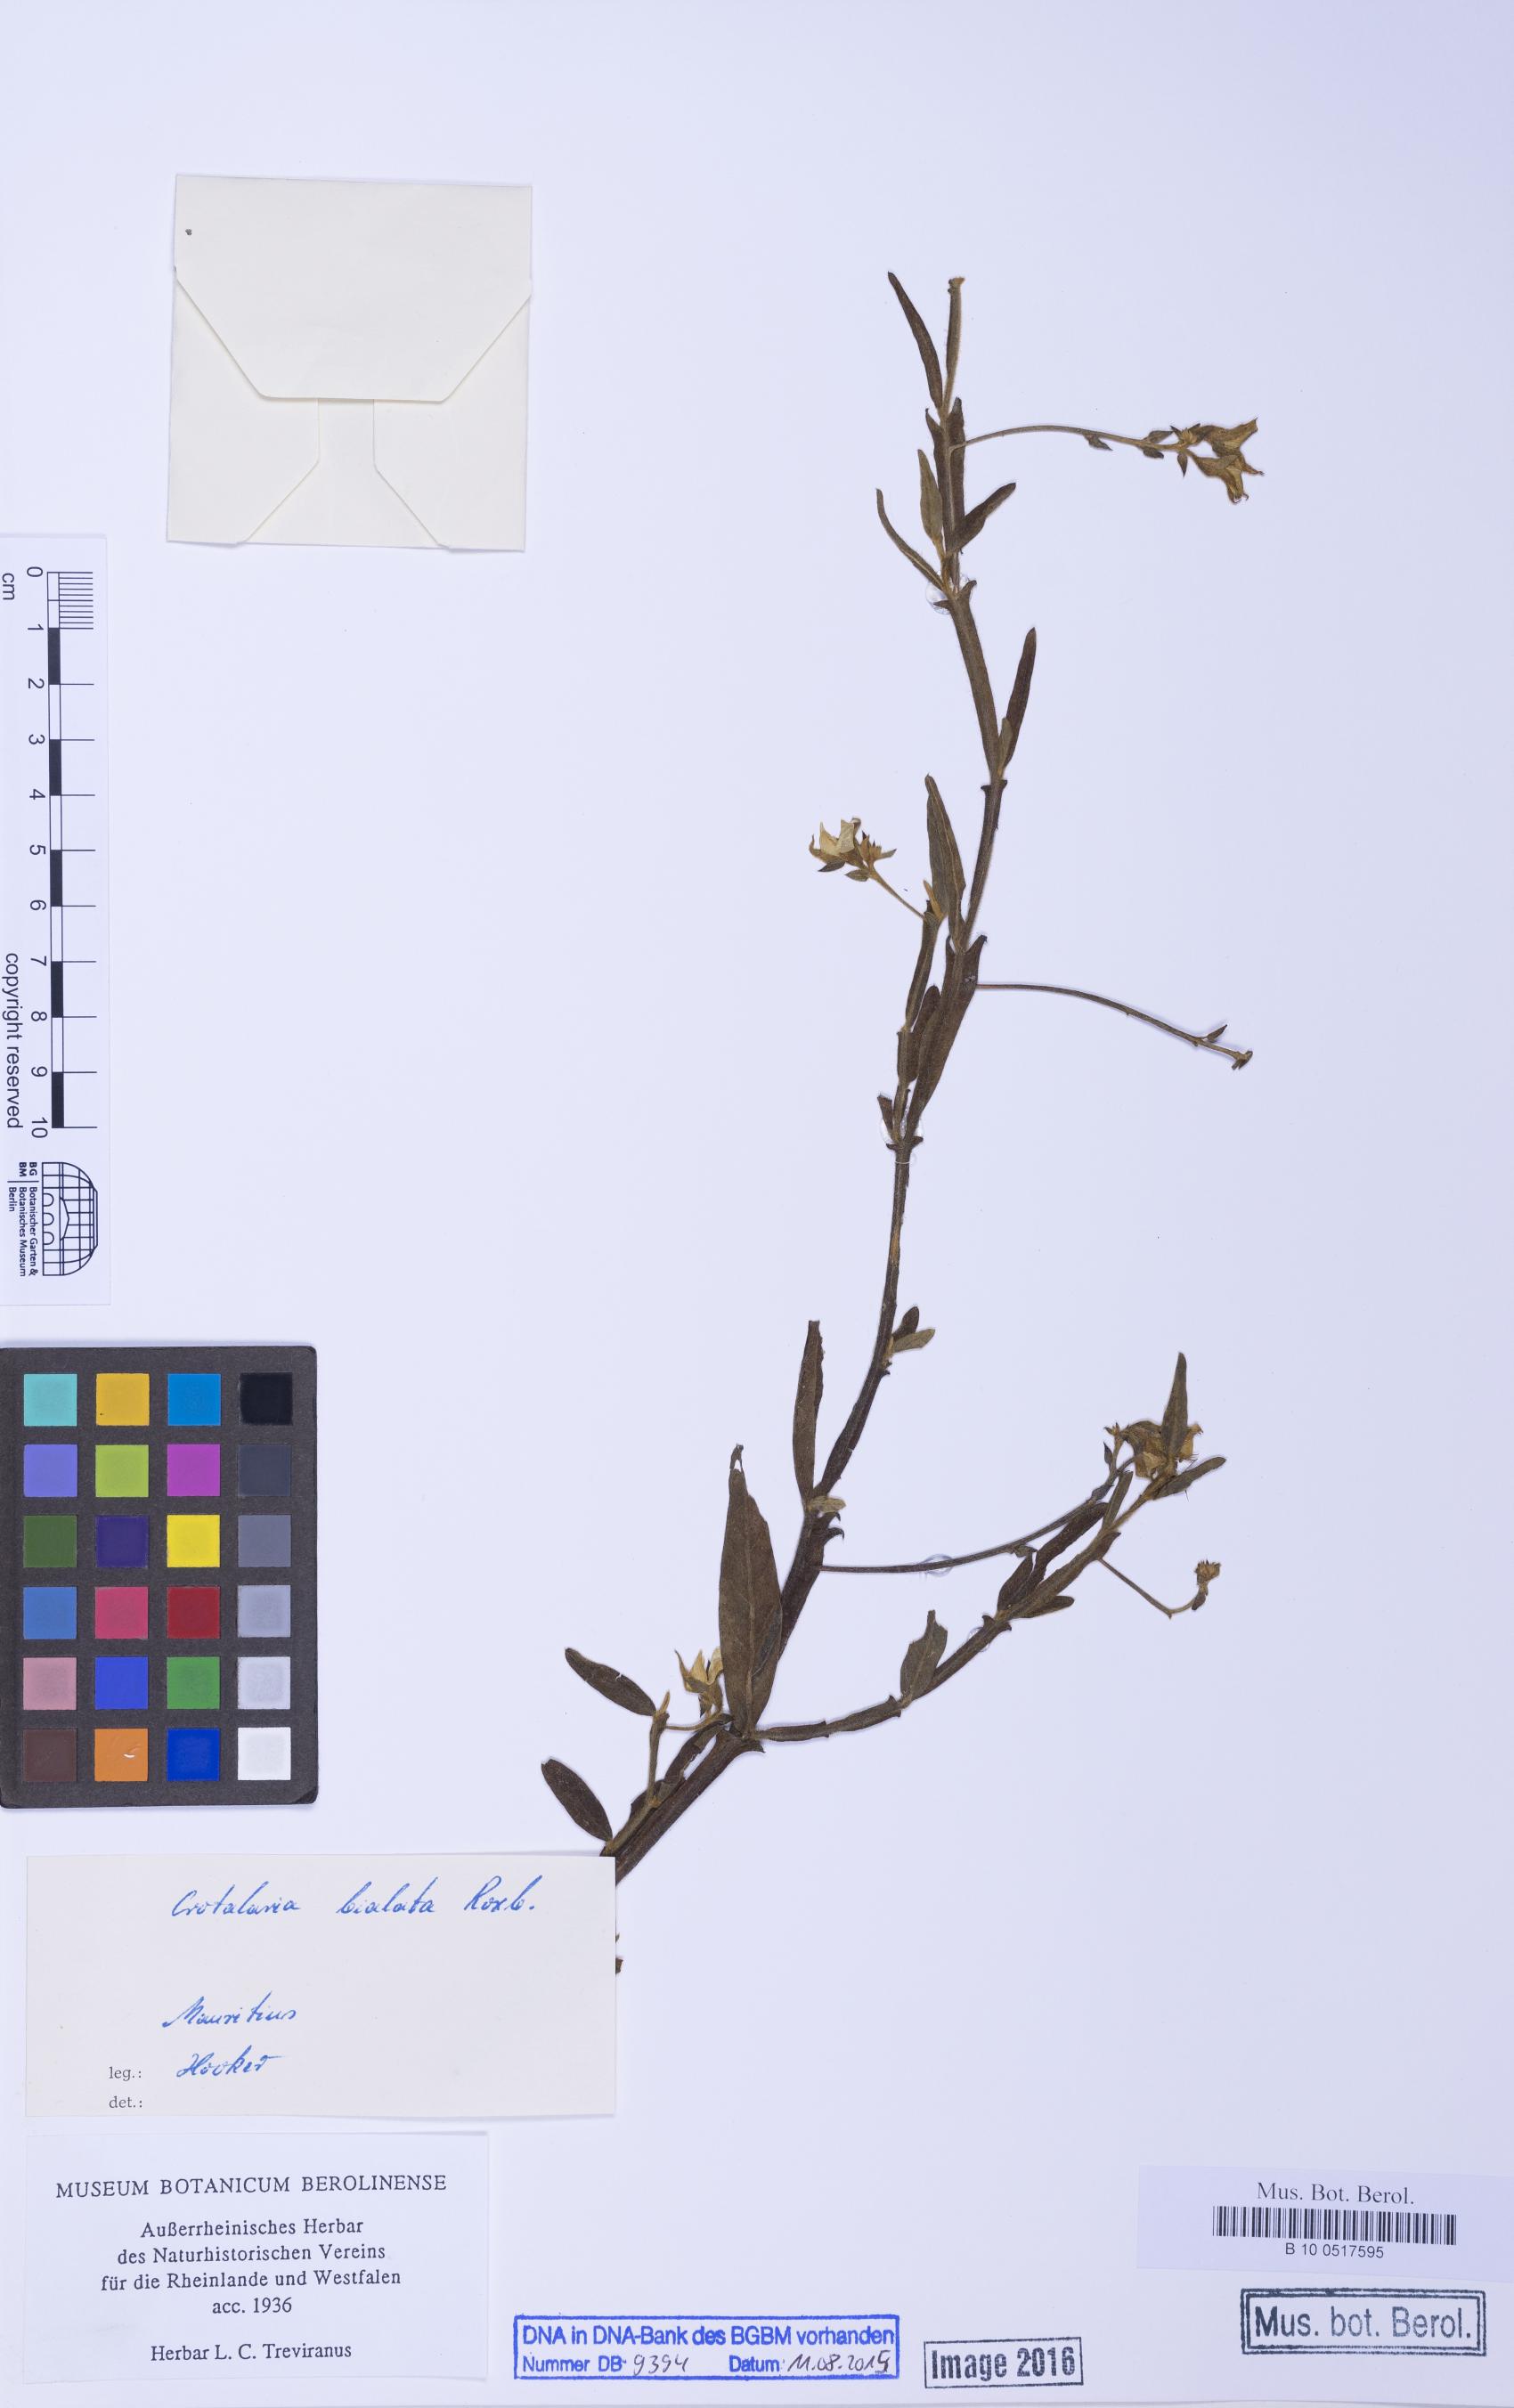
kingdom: Plantae
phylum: Tracheophyta
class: Magnoliopsida
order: Fabales
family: Fabaceae
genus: Crotalaria
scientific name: Crotalaria alata
